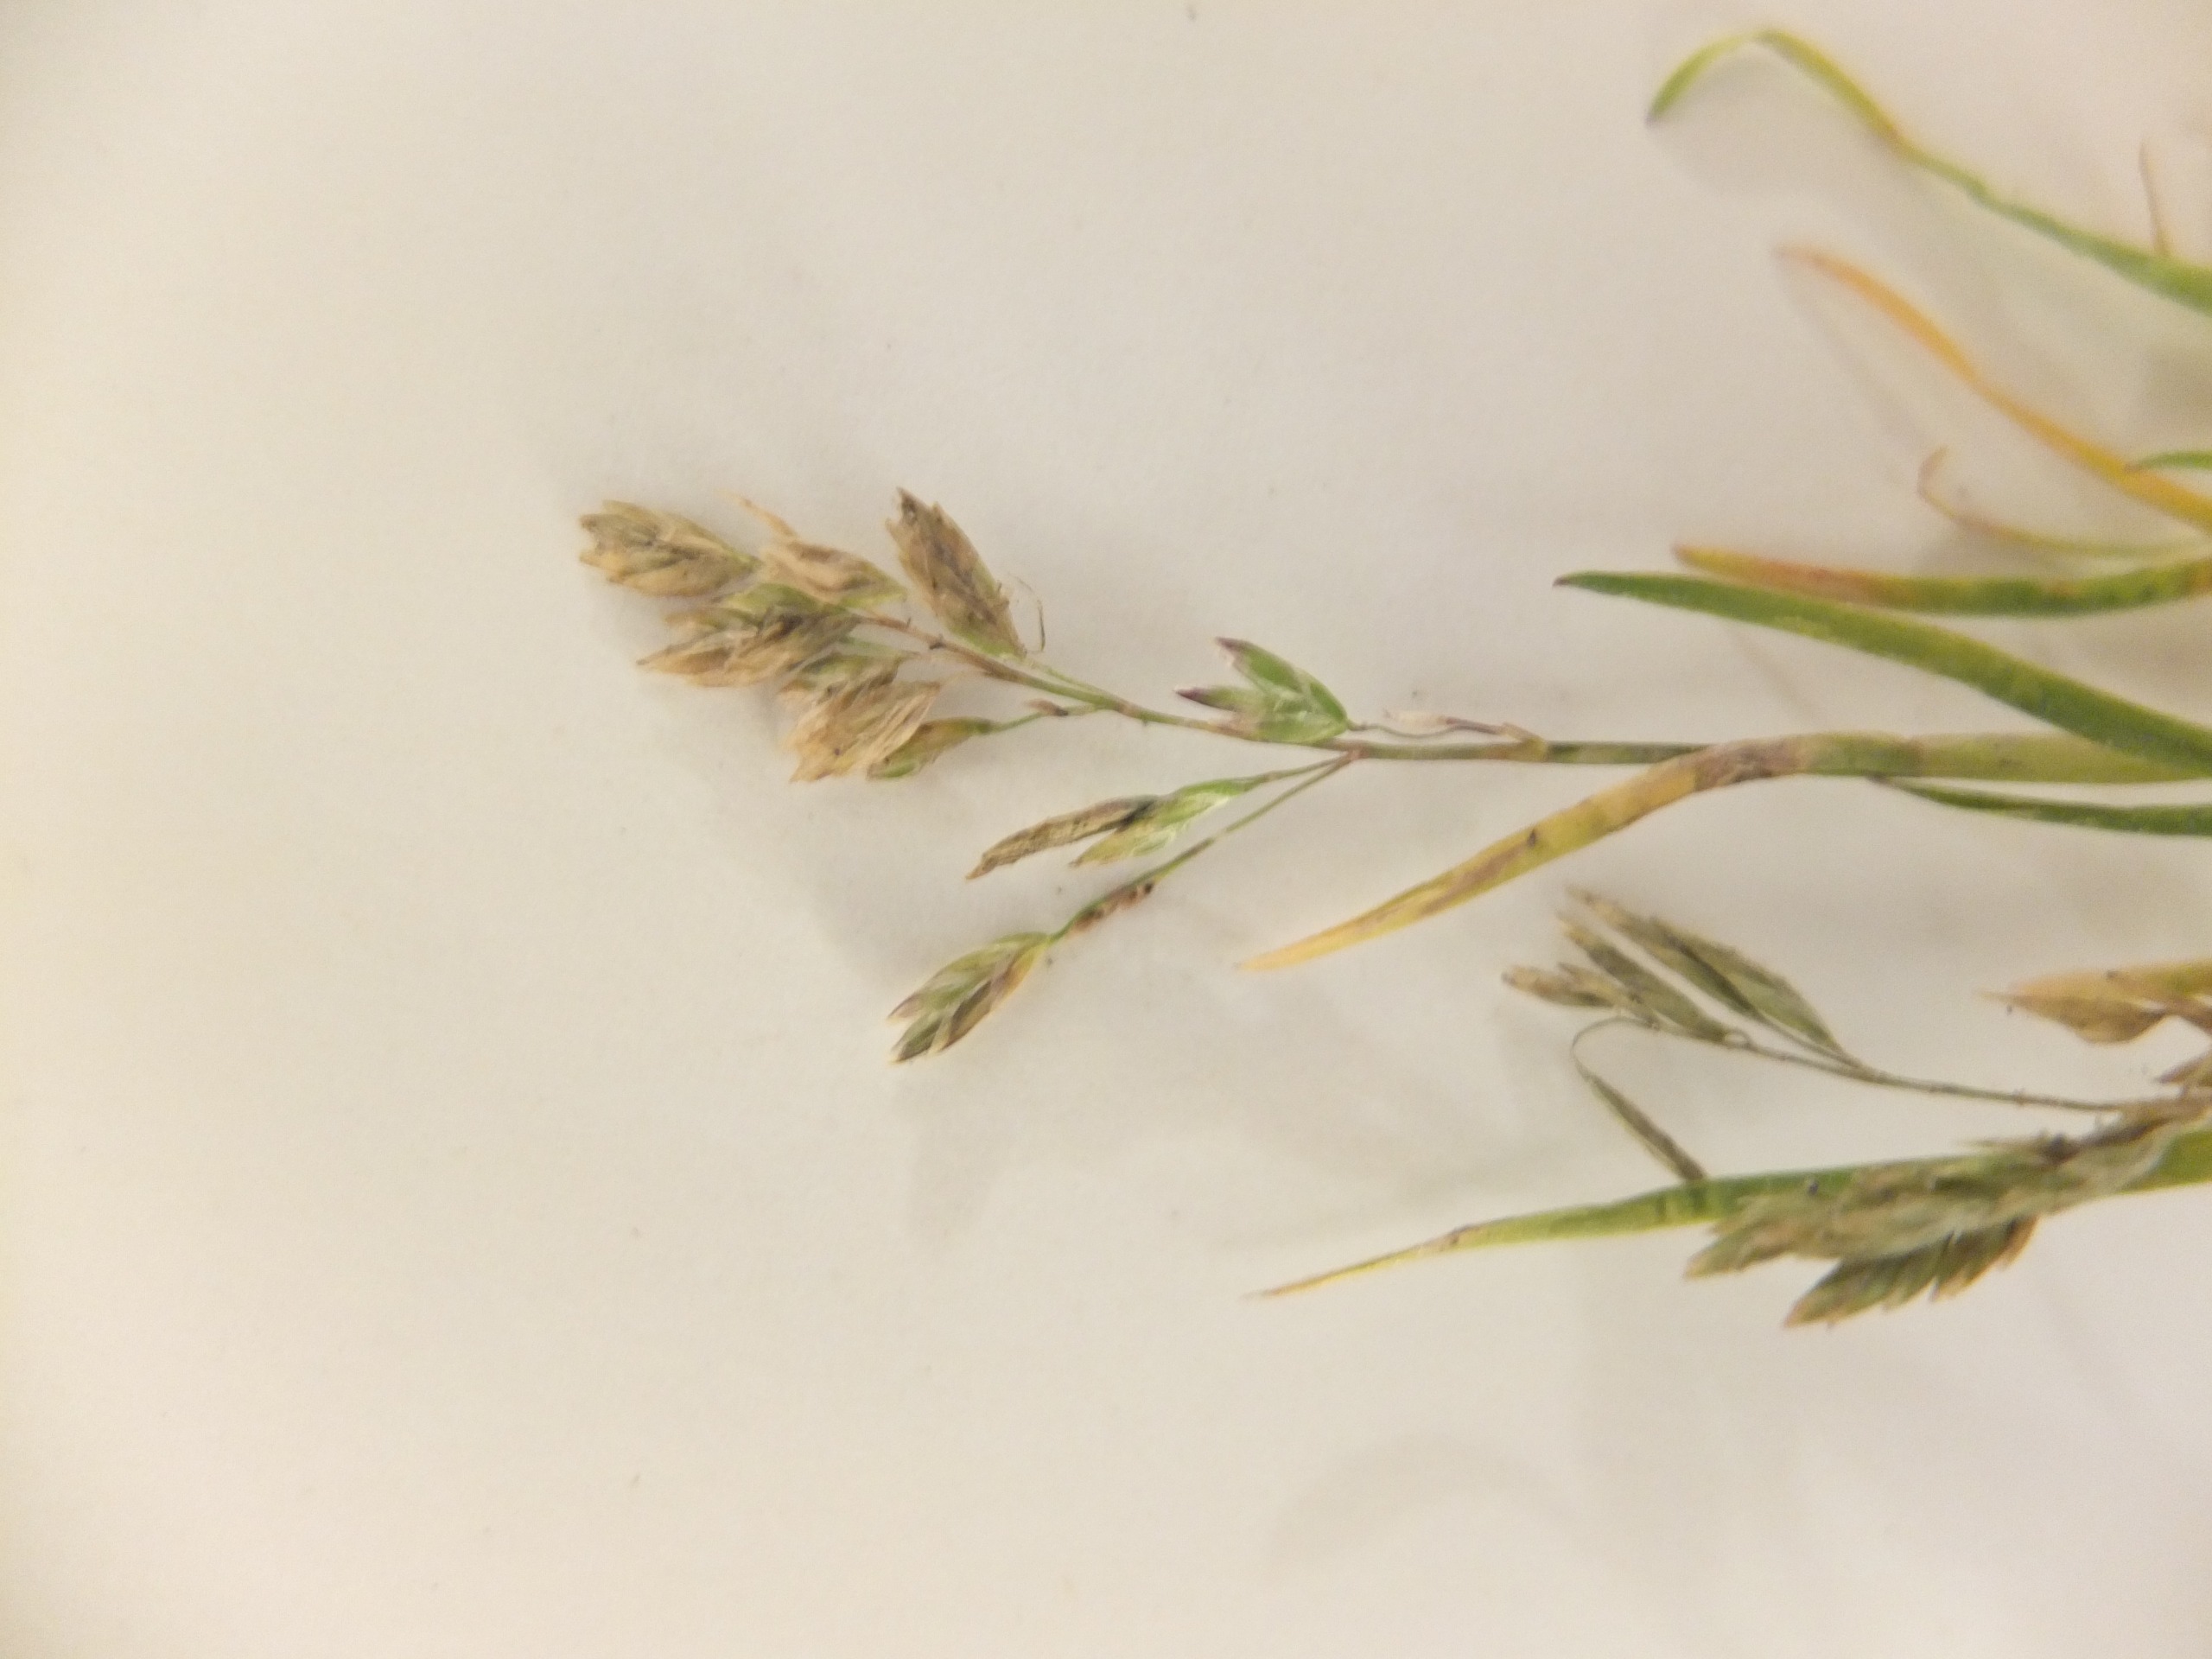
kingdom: Plantae
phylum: Tracheophyta
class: Liliopsida
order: Poales
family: Poaceae
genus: Poa
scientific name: Poa annua
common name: Enårig rapgræs
